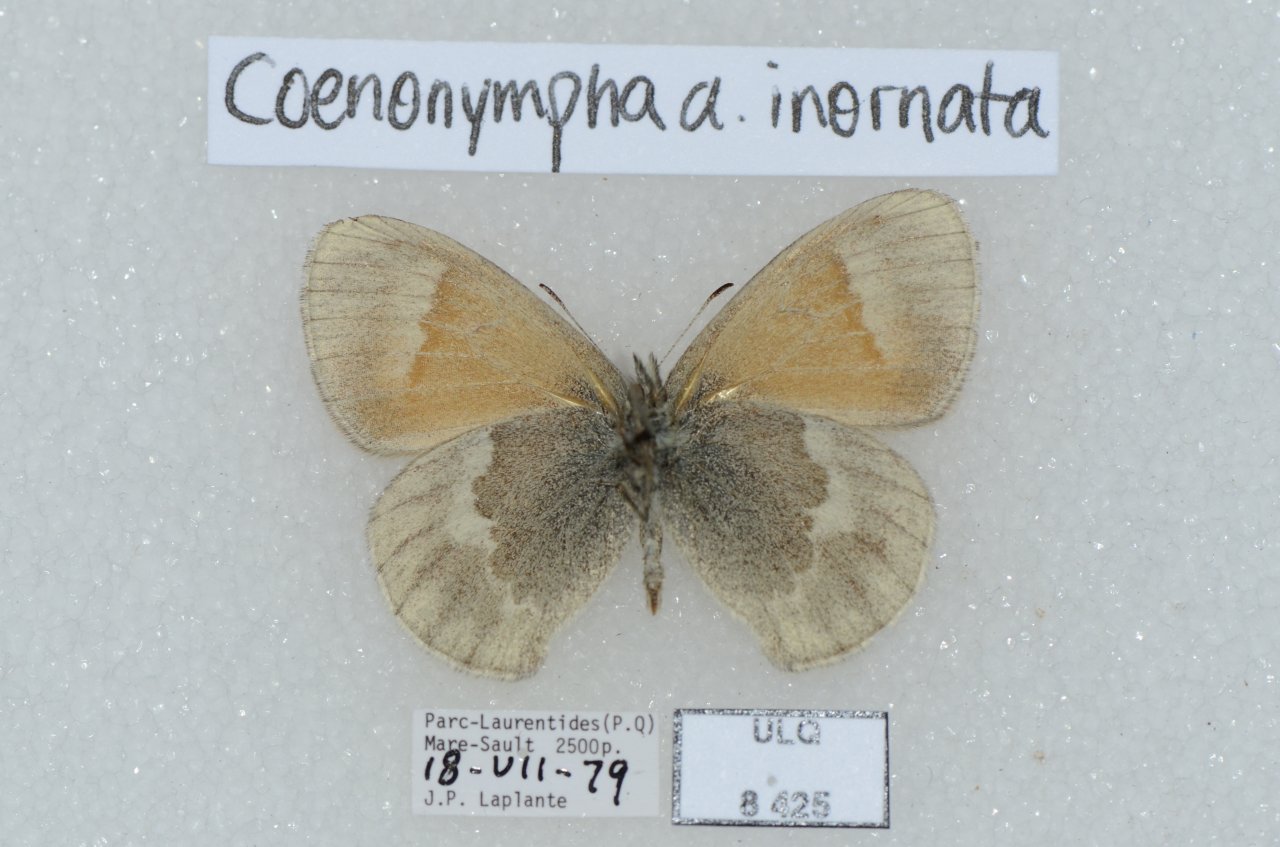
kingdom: Animalia
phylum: Arthropoda
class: Insecta
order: Lepidoptera
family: Nymphalidae
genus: Coenonympha
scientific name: Coenonympha tullia
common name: Large Heath
